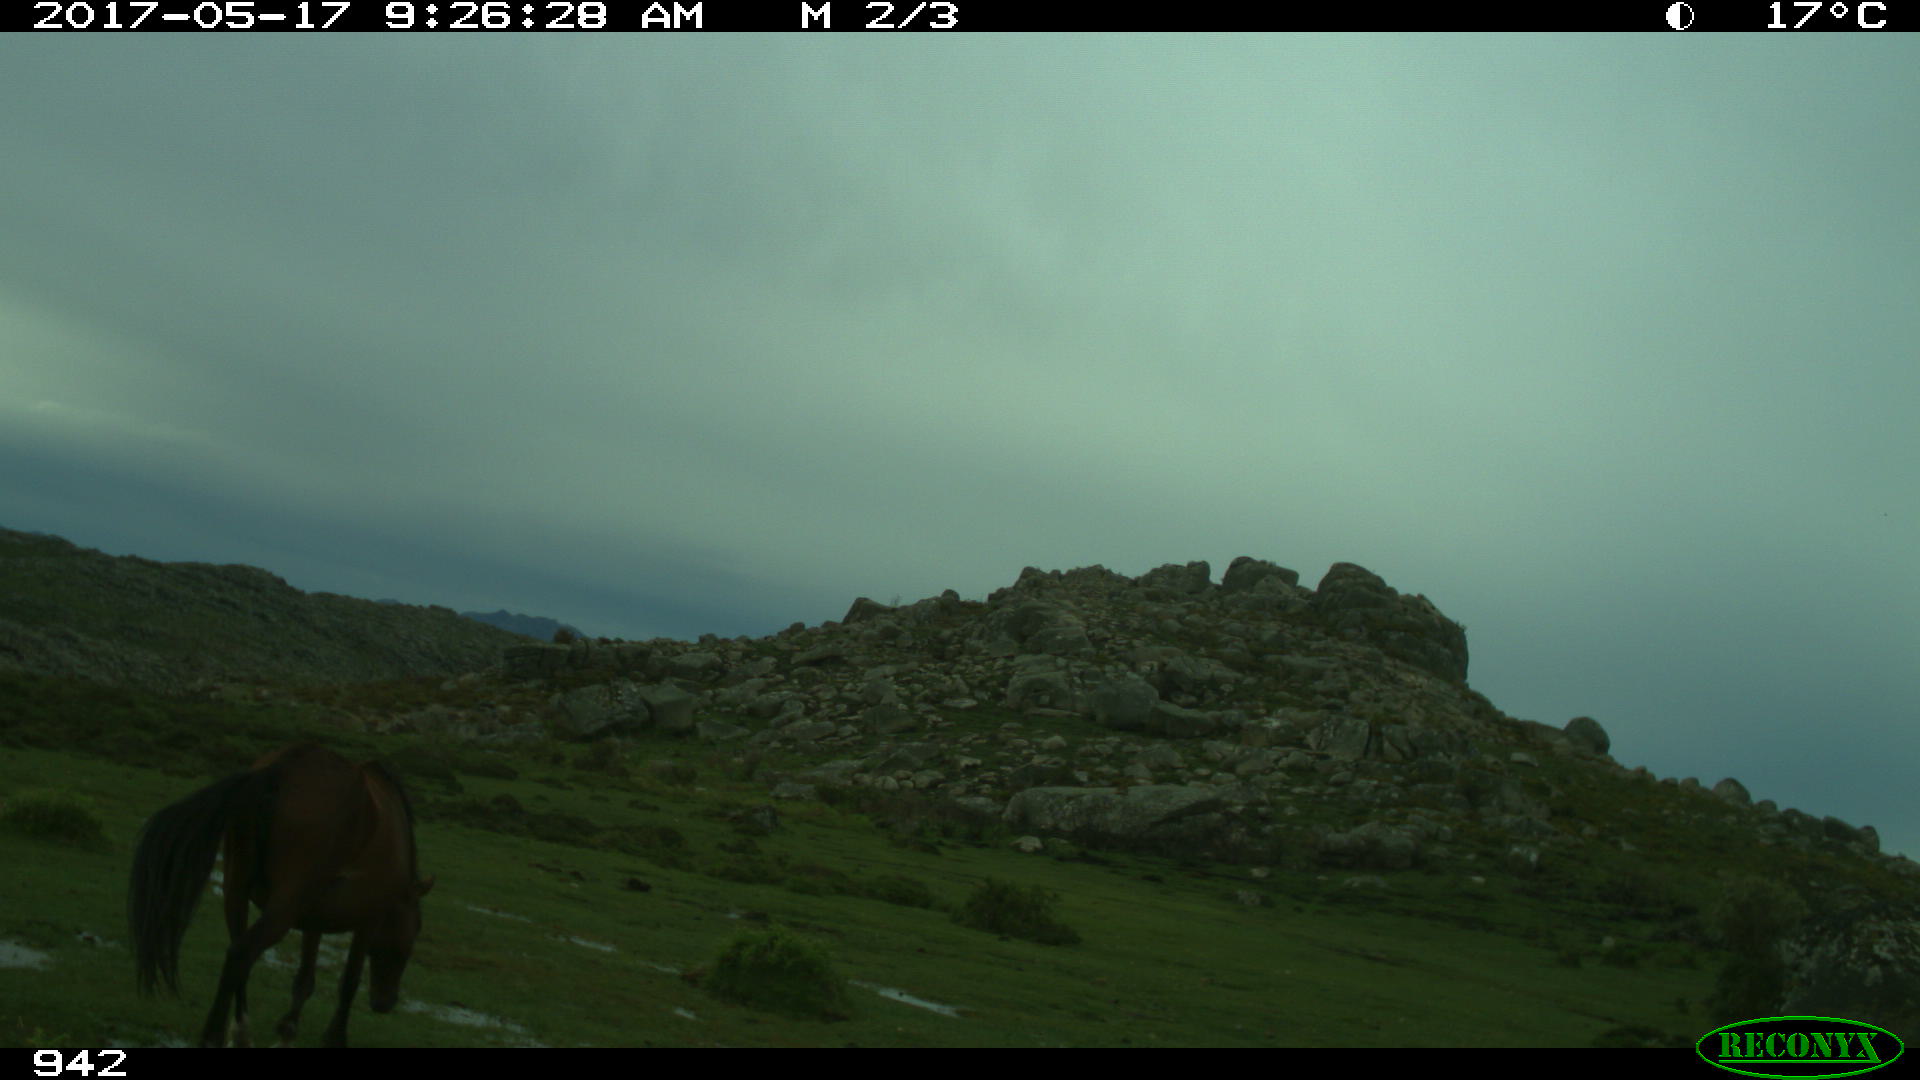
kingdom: Animalia
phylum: Chordata
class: Mammalia
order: Perissodactyla
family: Equidae
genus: Equus
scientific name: Equus caballus
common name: Horse
